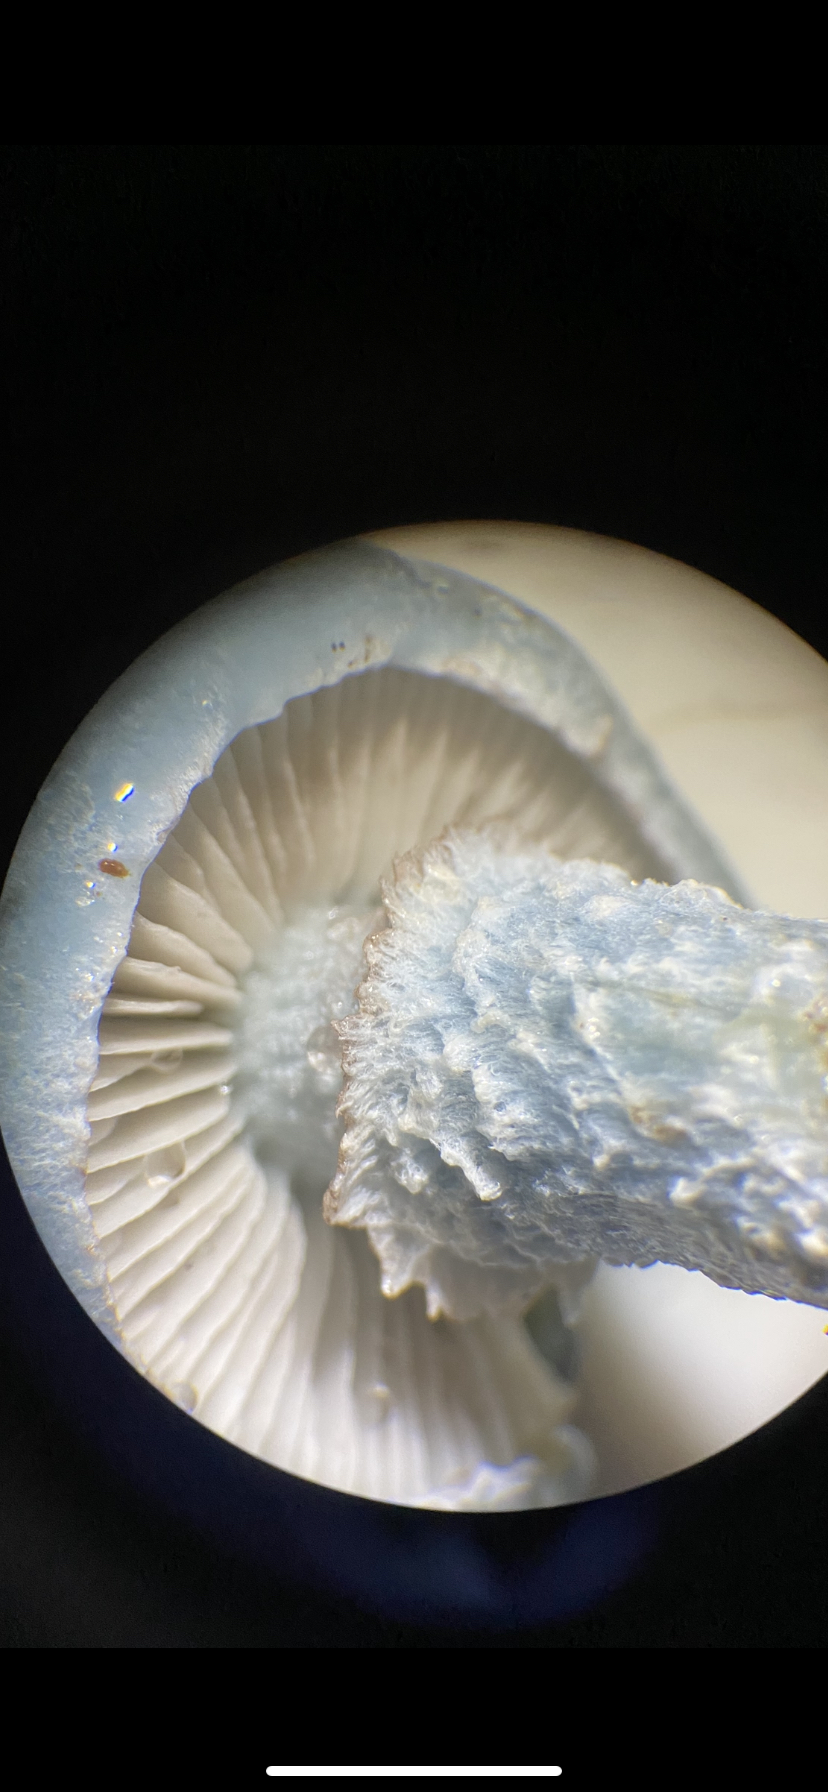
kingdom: Fungi
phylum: Basidiomycota
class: Agaricomycetes
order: Agaricales
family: Strophariaceae
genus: Stropharia
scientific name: Stropharia cyanea
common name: blågrøn bredblad
